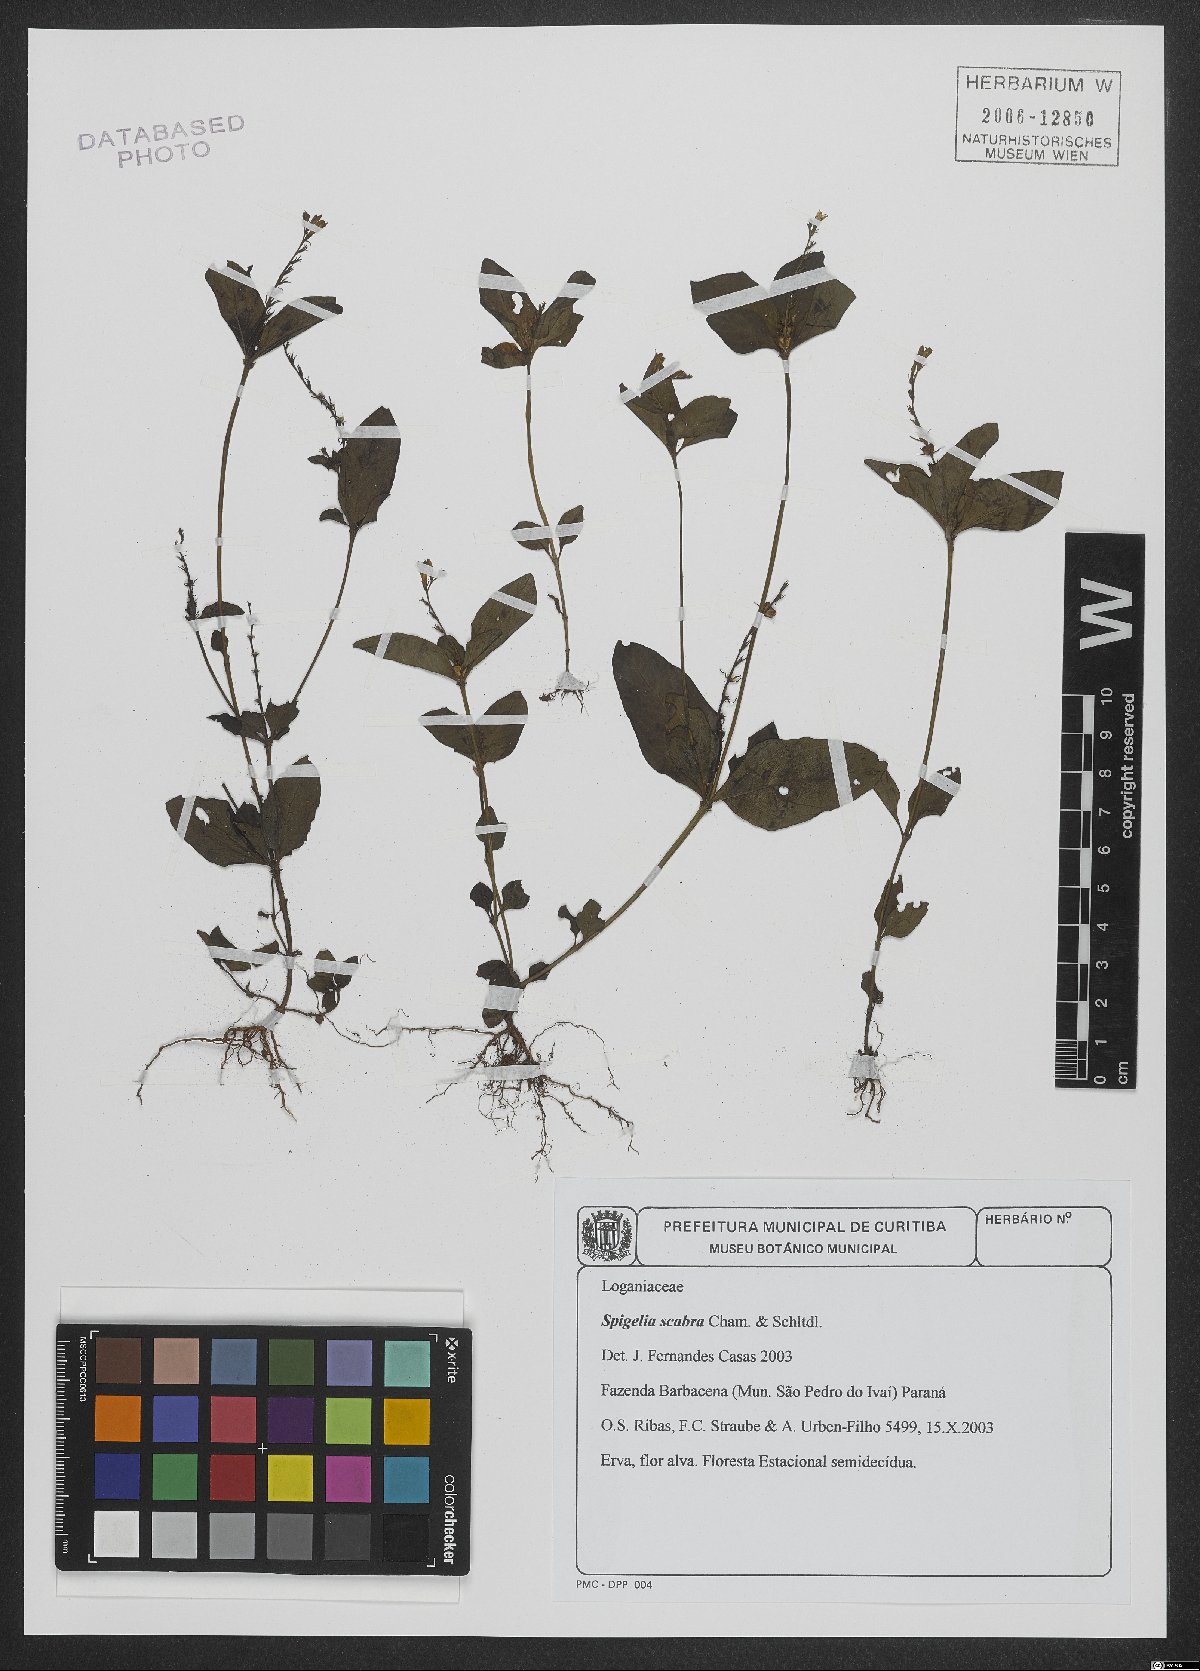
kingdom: Plantae
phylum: Tracheophyta
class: Magnoliopsida
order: Gentianales
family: Loganiaceae
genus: Spigelia
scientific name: Spigelia humboldtiana
